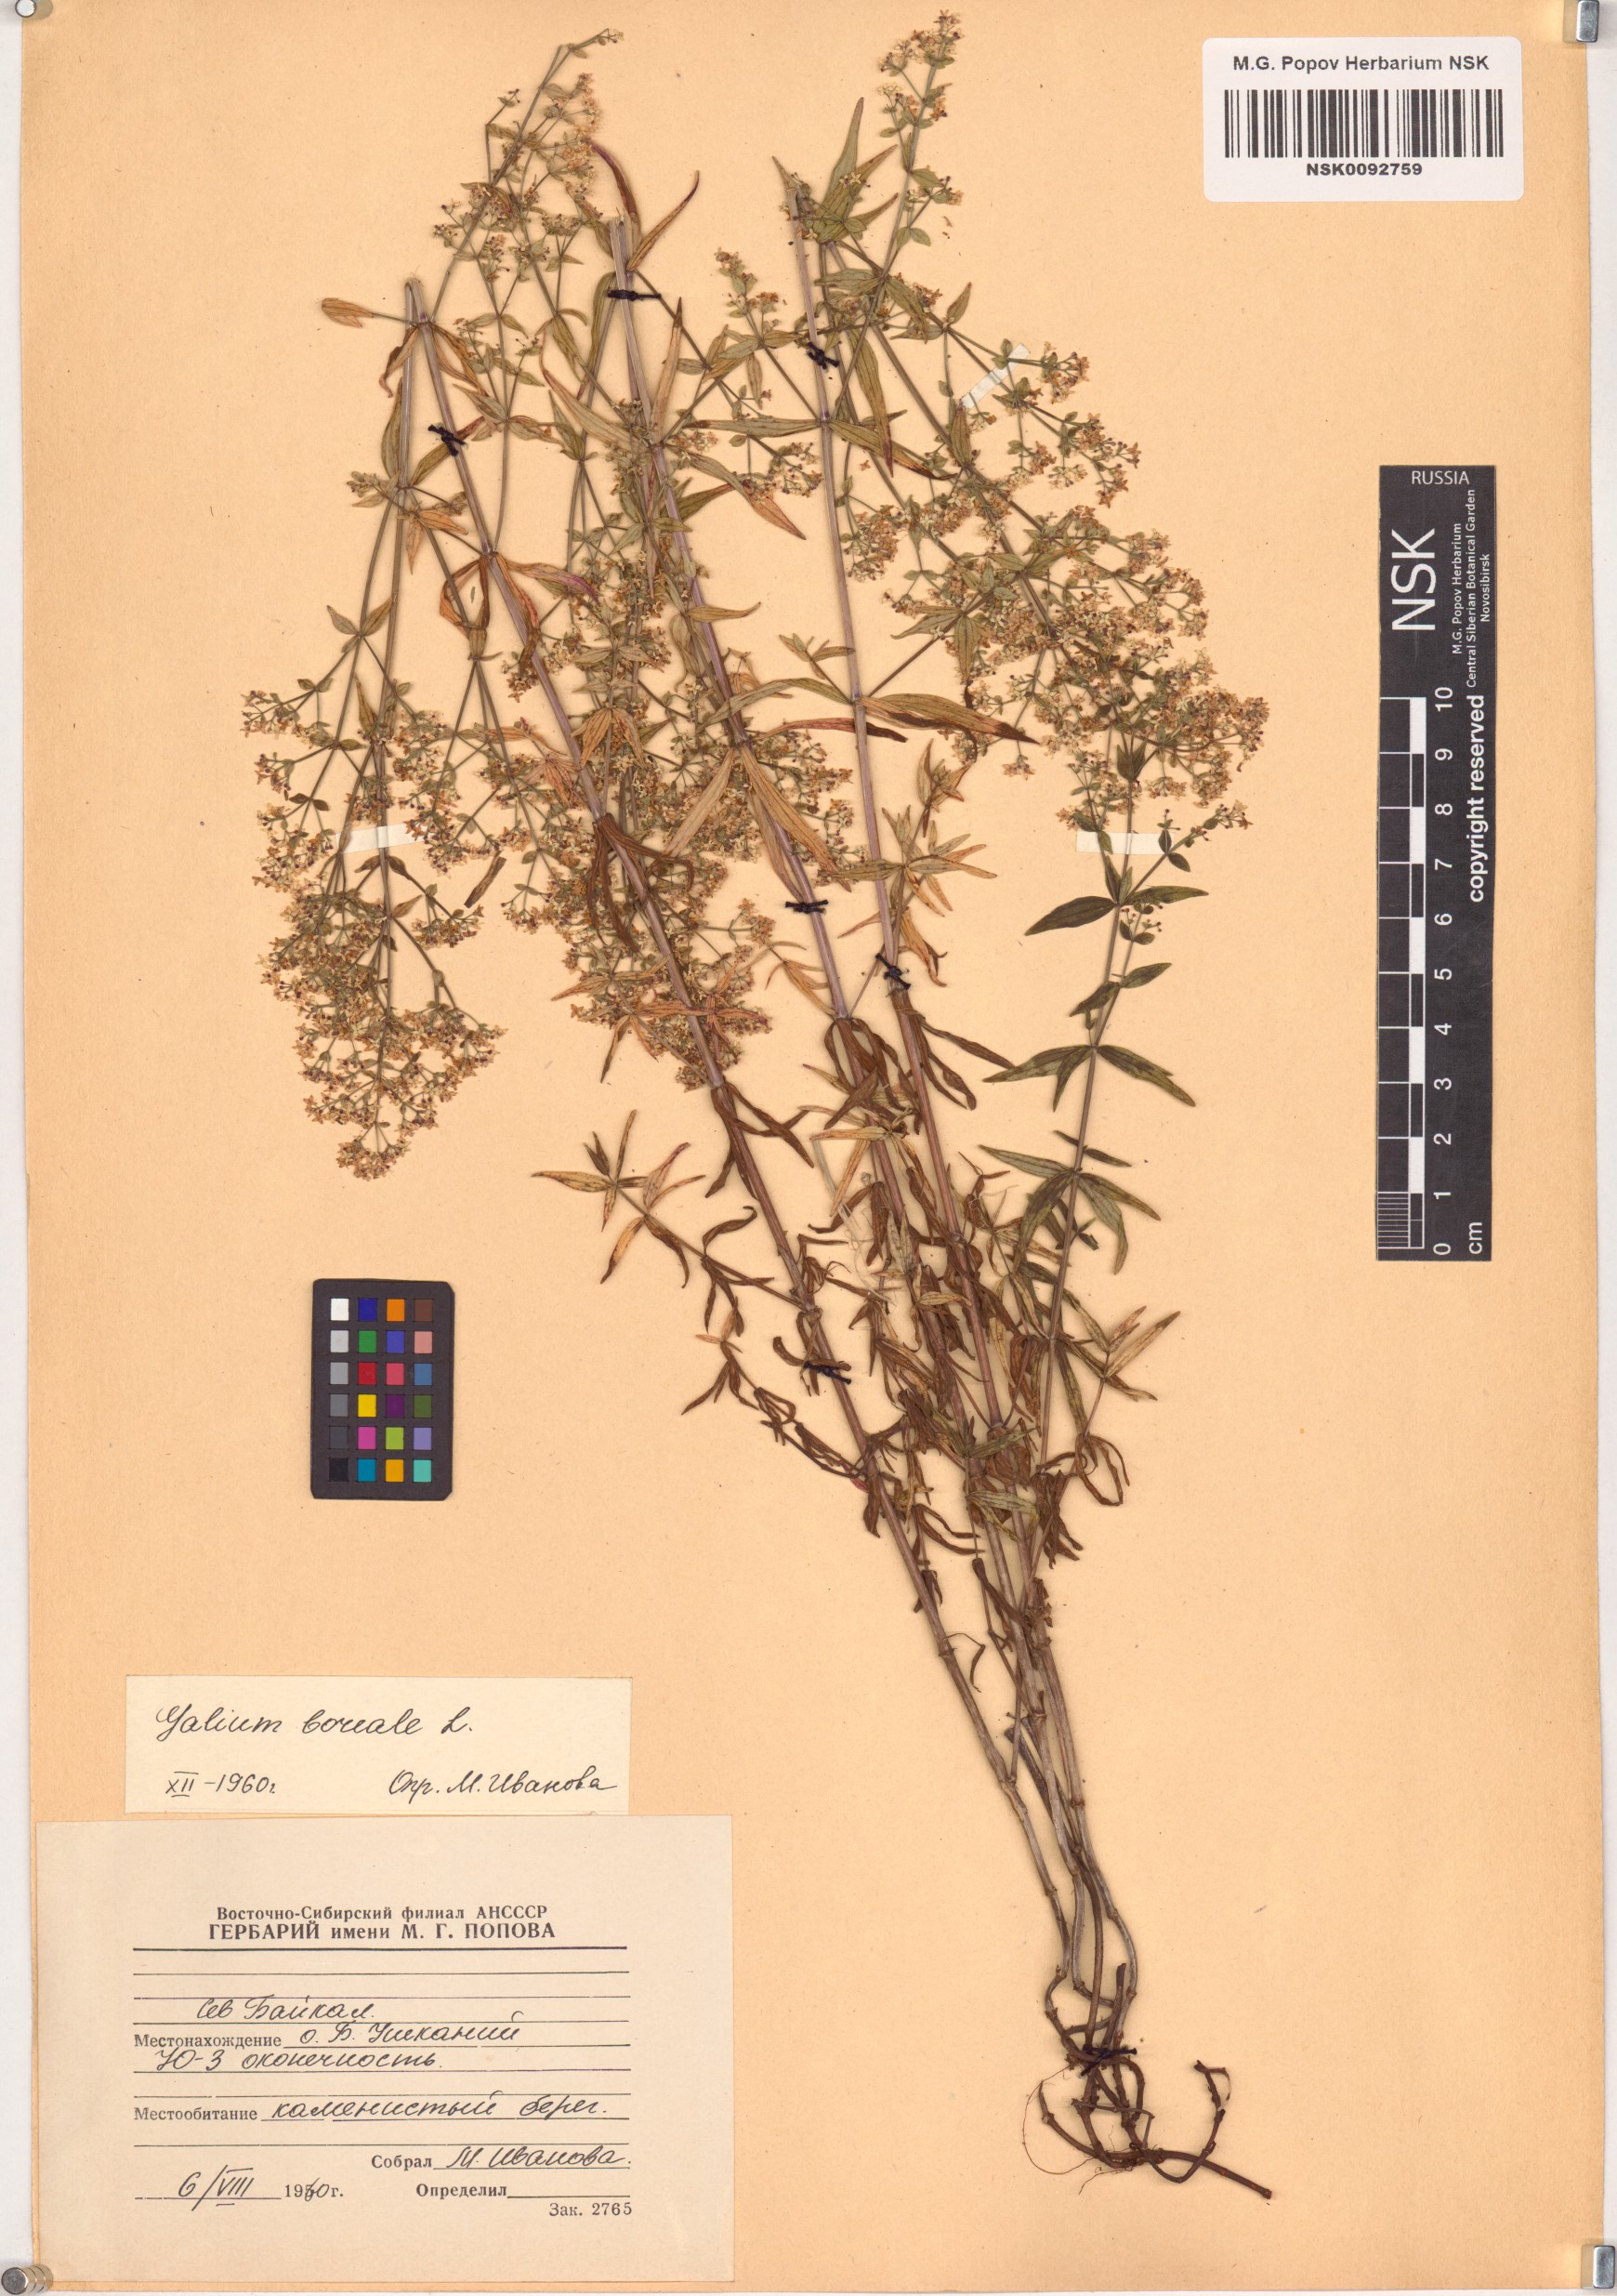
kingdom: Plantae
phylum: Tracheophyta
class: Magnoliopsida
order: Gentianales
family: Rubiaceae
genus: Galium
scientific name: Galium boreale
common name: Northern bedstraw
